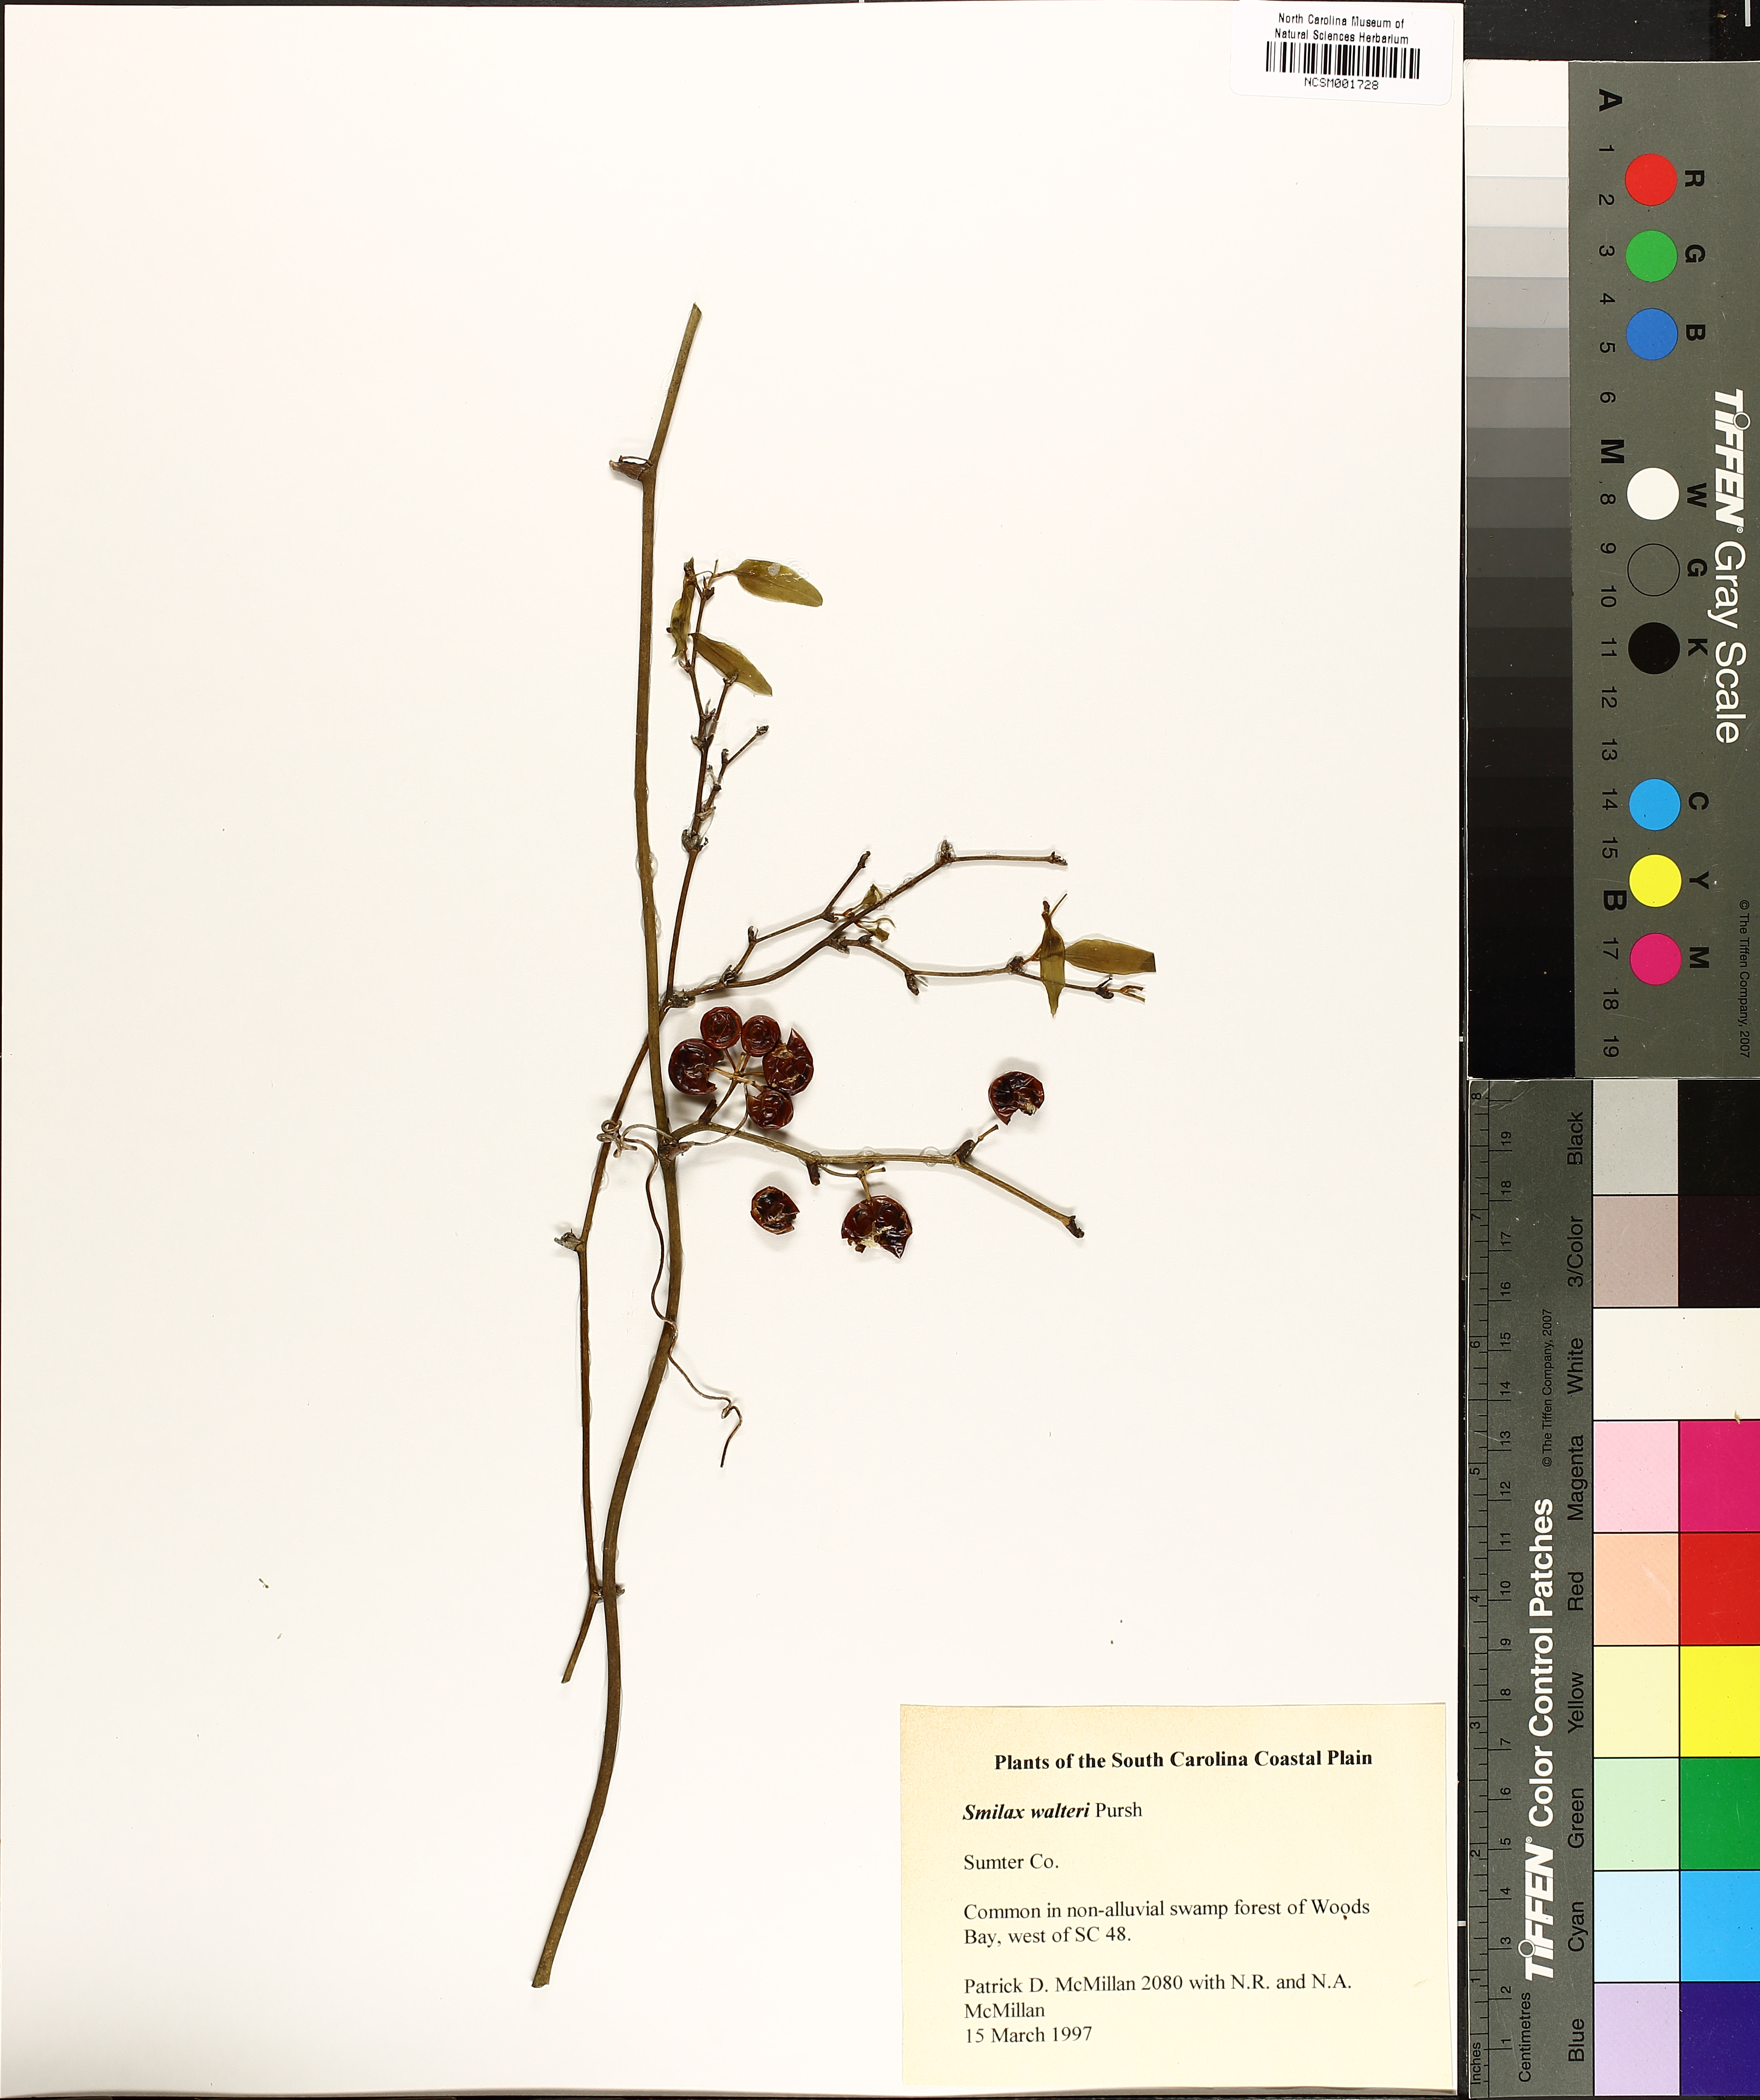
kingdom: Plantae
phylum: Tracheophyta
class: Liliopsida
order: Liliales
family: Smilacaceae
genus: Smilax
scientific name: Smilax walteri
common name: Coral greenbrier
